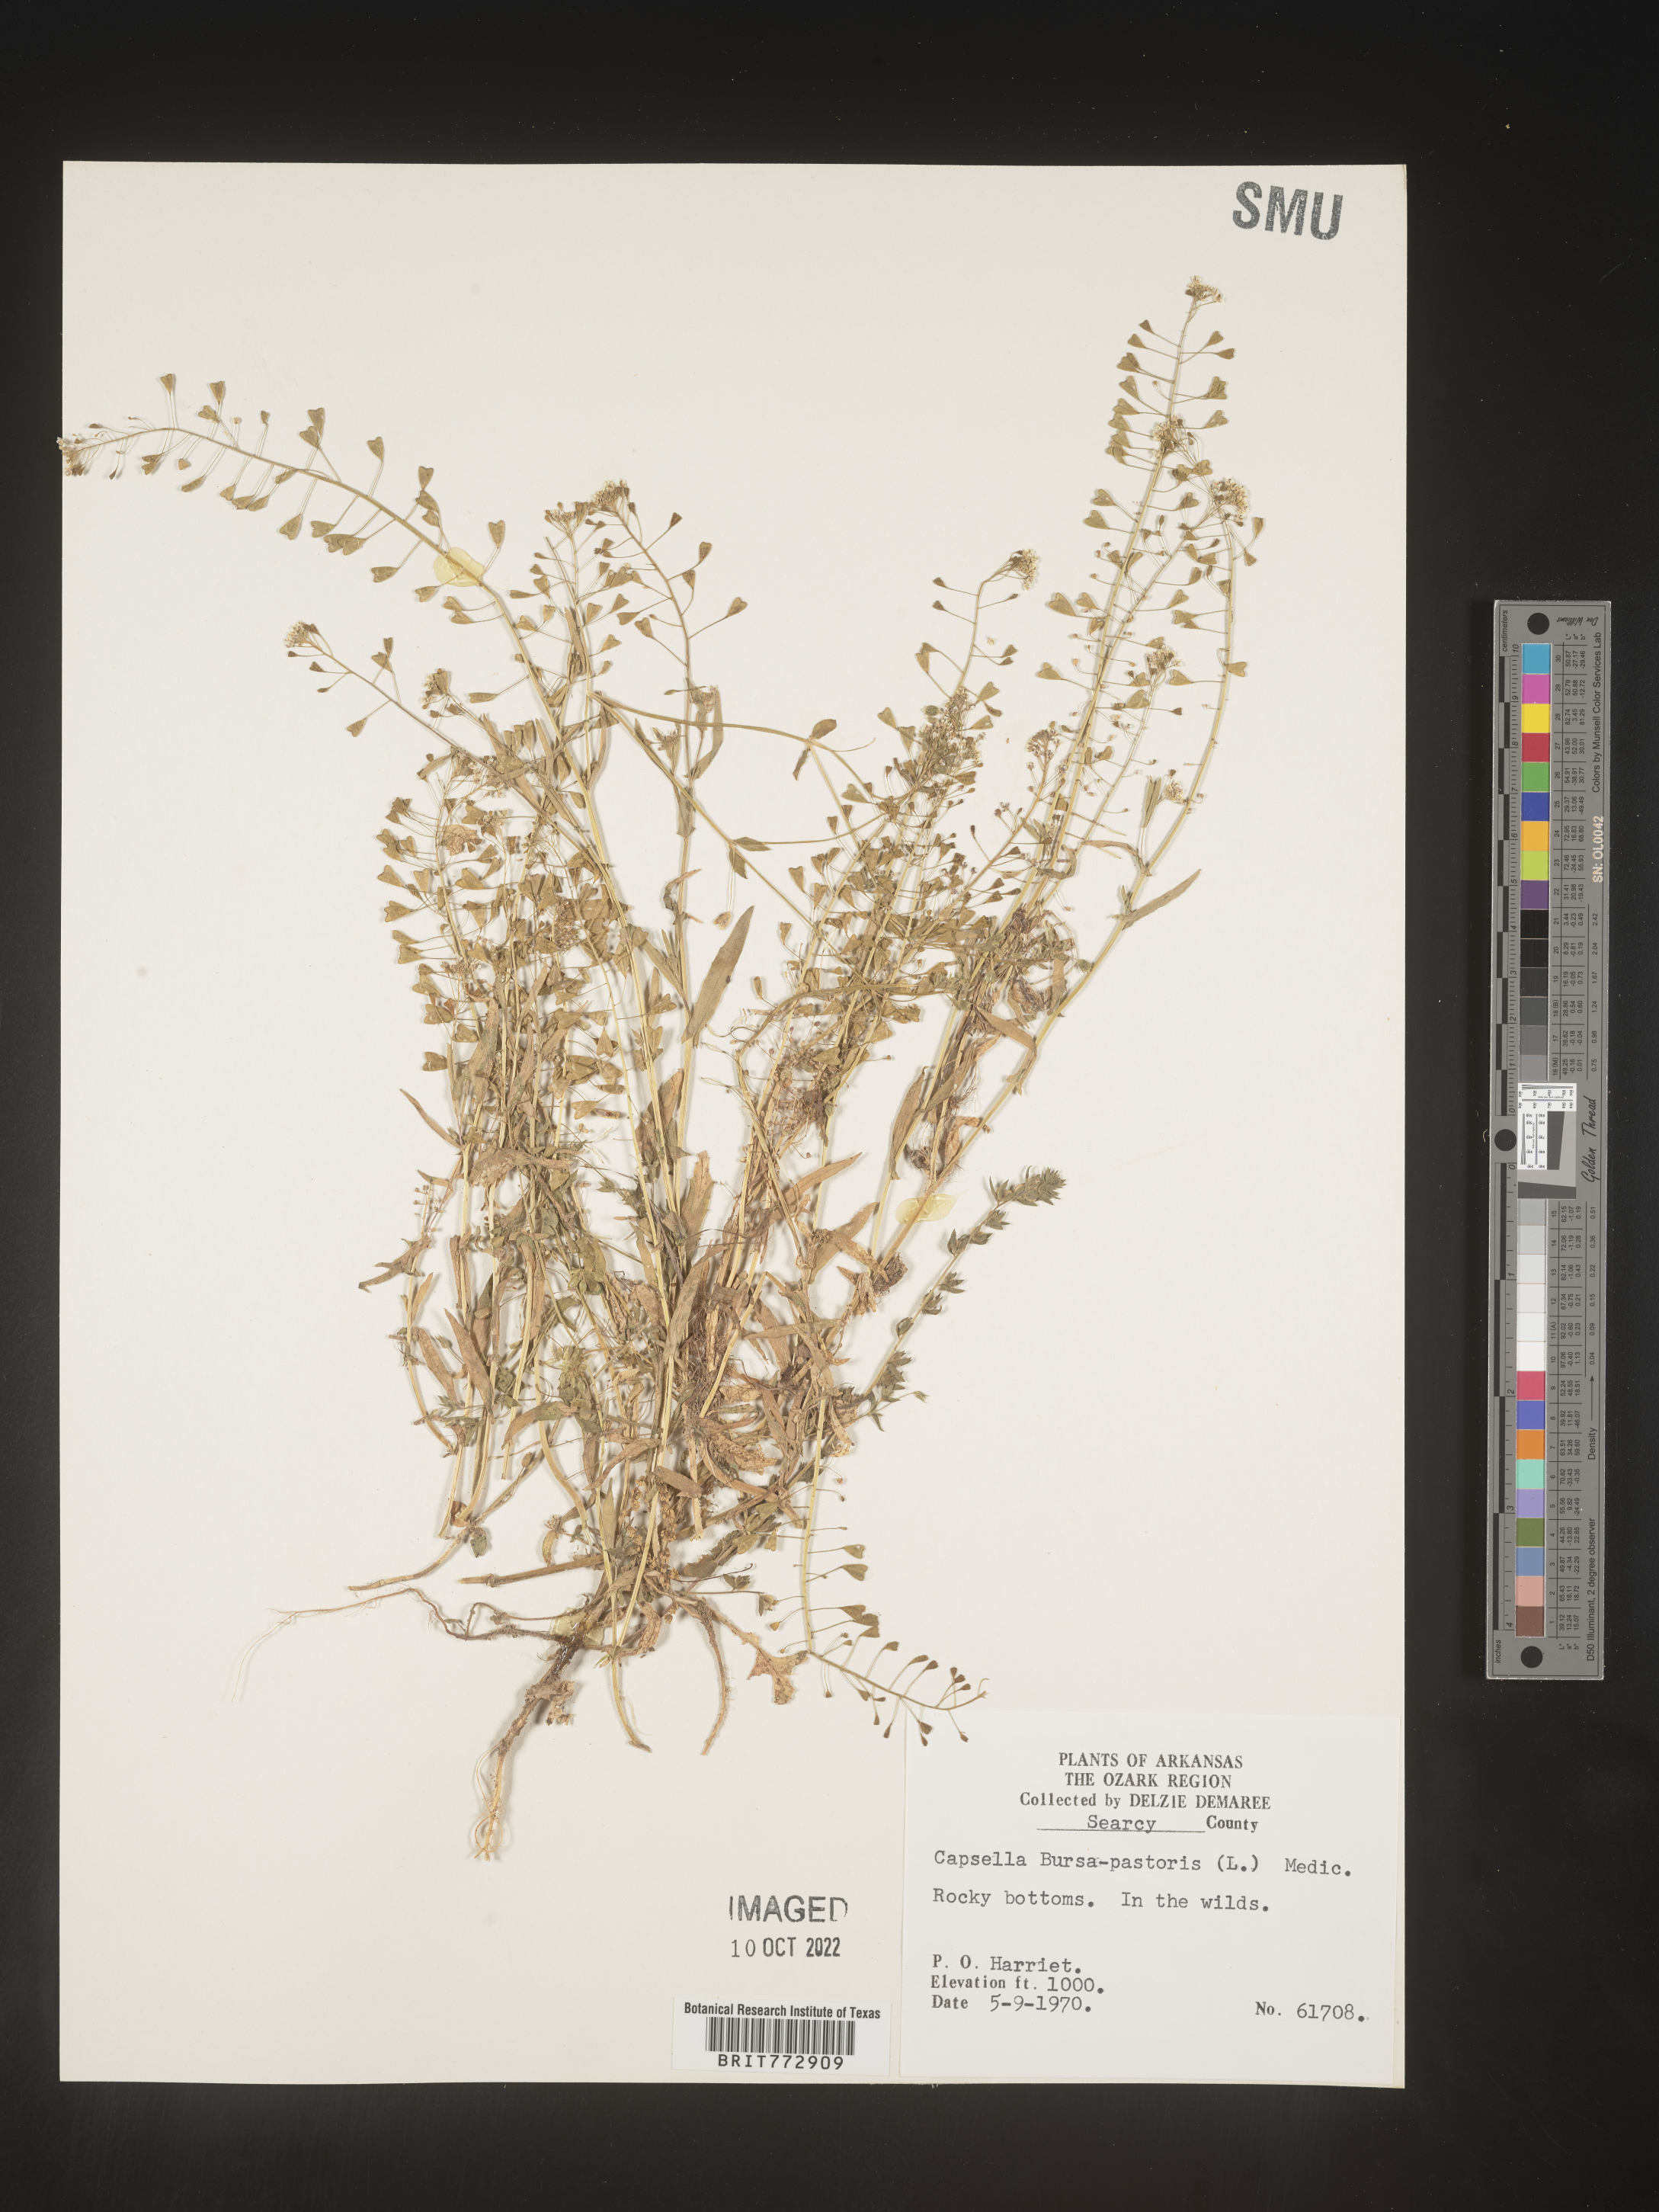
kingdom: Plantae
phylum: Tracheophyta
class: Magnoliopsida
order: Brassicales
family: Brassicaceae
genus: Capsella
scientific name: Capsella bursa-pastoris
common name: Shepherd's purse
